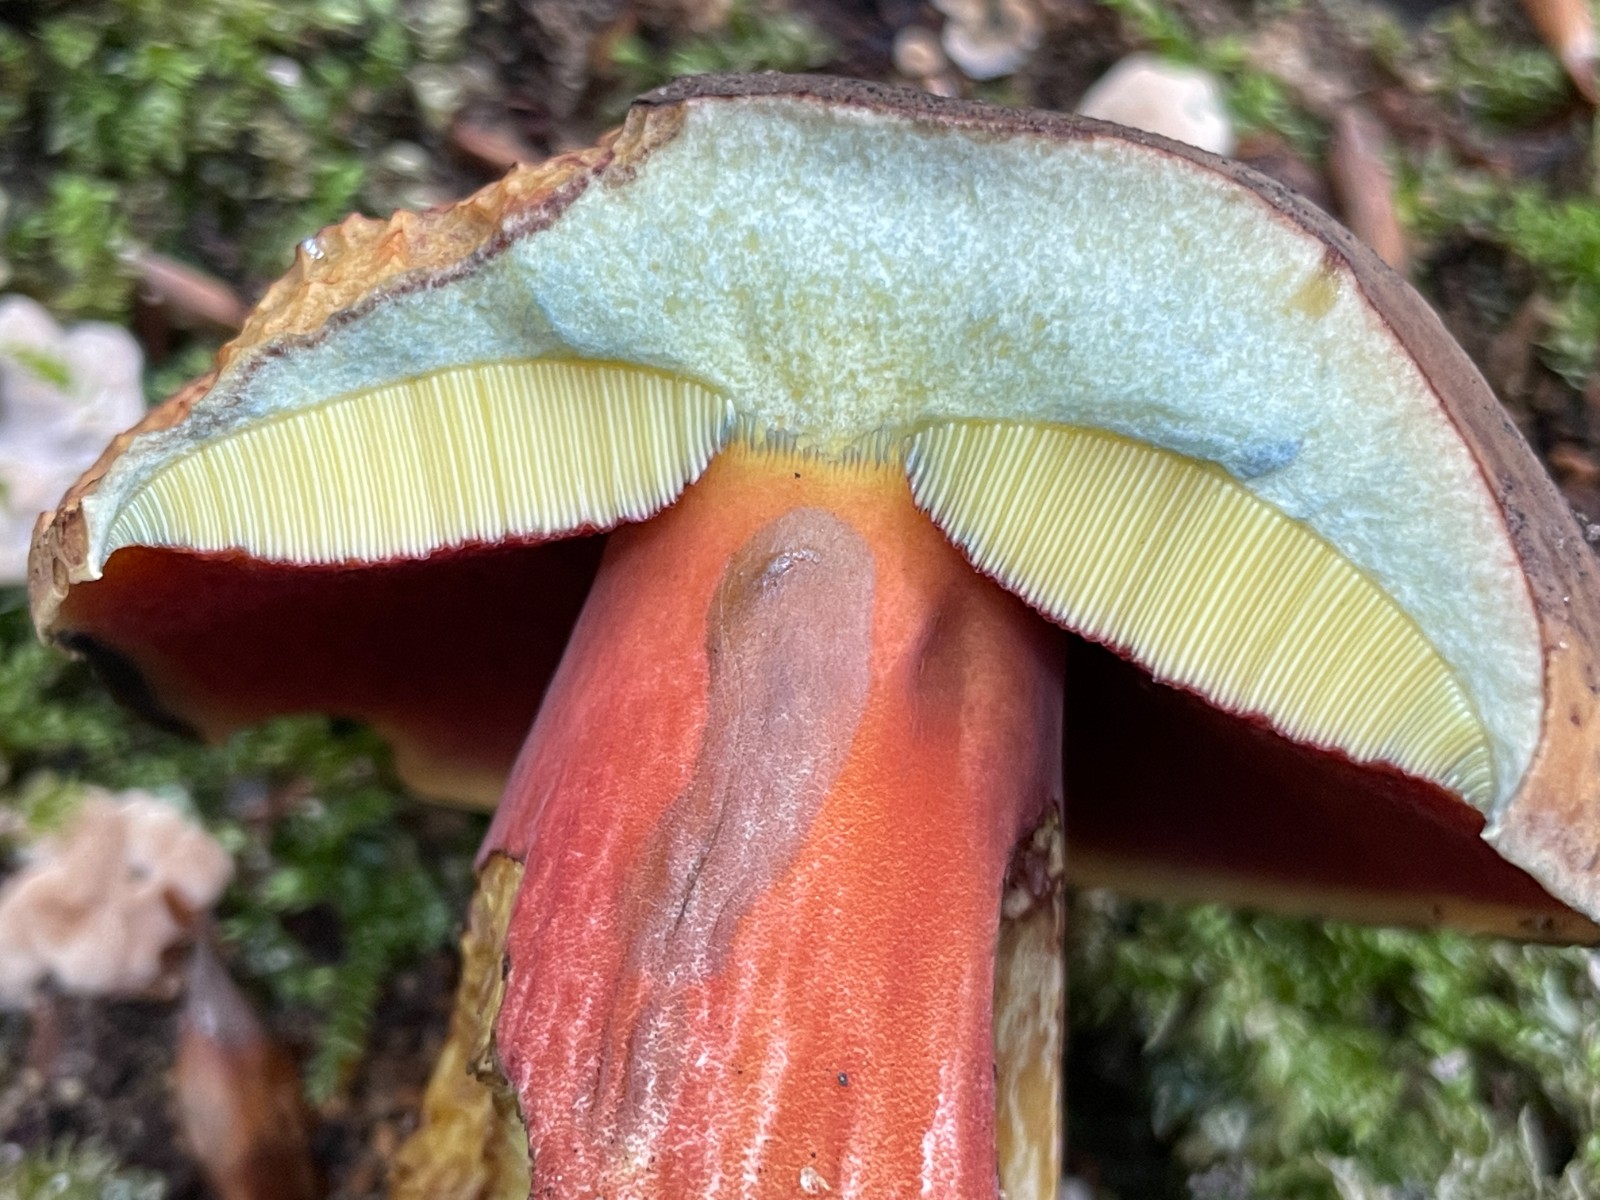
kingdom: Fungi
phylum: Basidiomycota
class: Agaricomycetes
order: Boletales
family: Boletaceae
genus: Neoboletus
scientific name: Neoboletus
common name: indigorørhat
